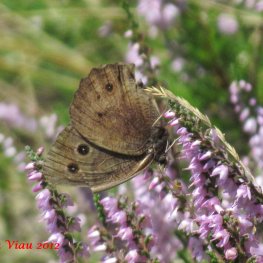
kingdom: Animalia
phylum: Arthropoda
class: Insecta
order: Lepidoptera
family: Nymphalidae
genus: Cercyonis
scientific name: Cercyonis pegala
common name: Common Wood-Nymph
